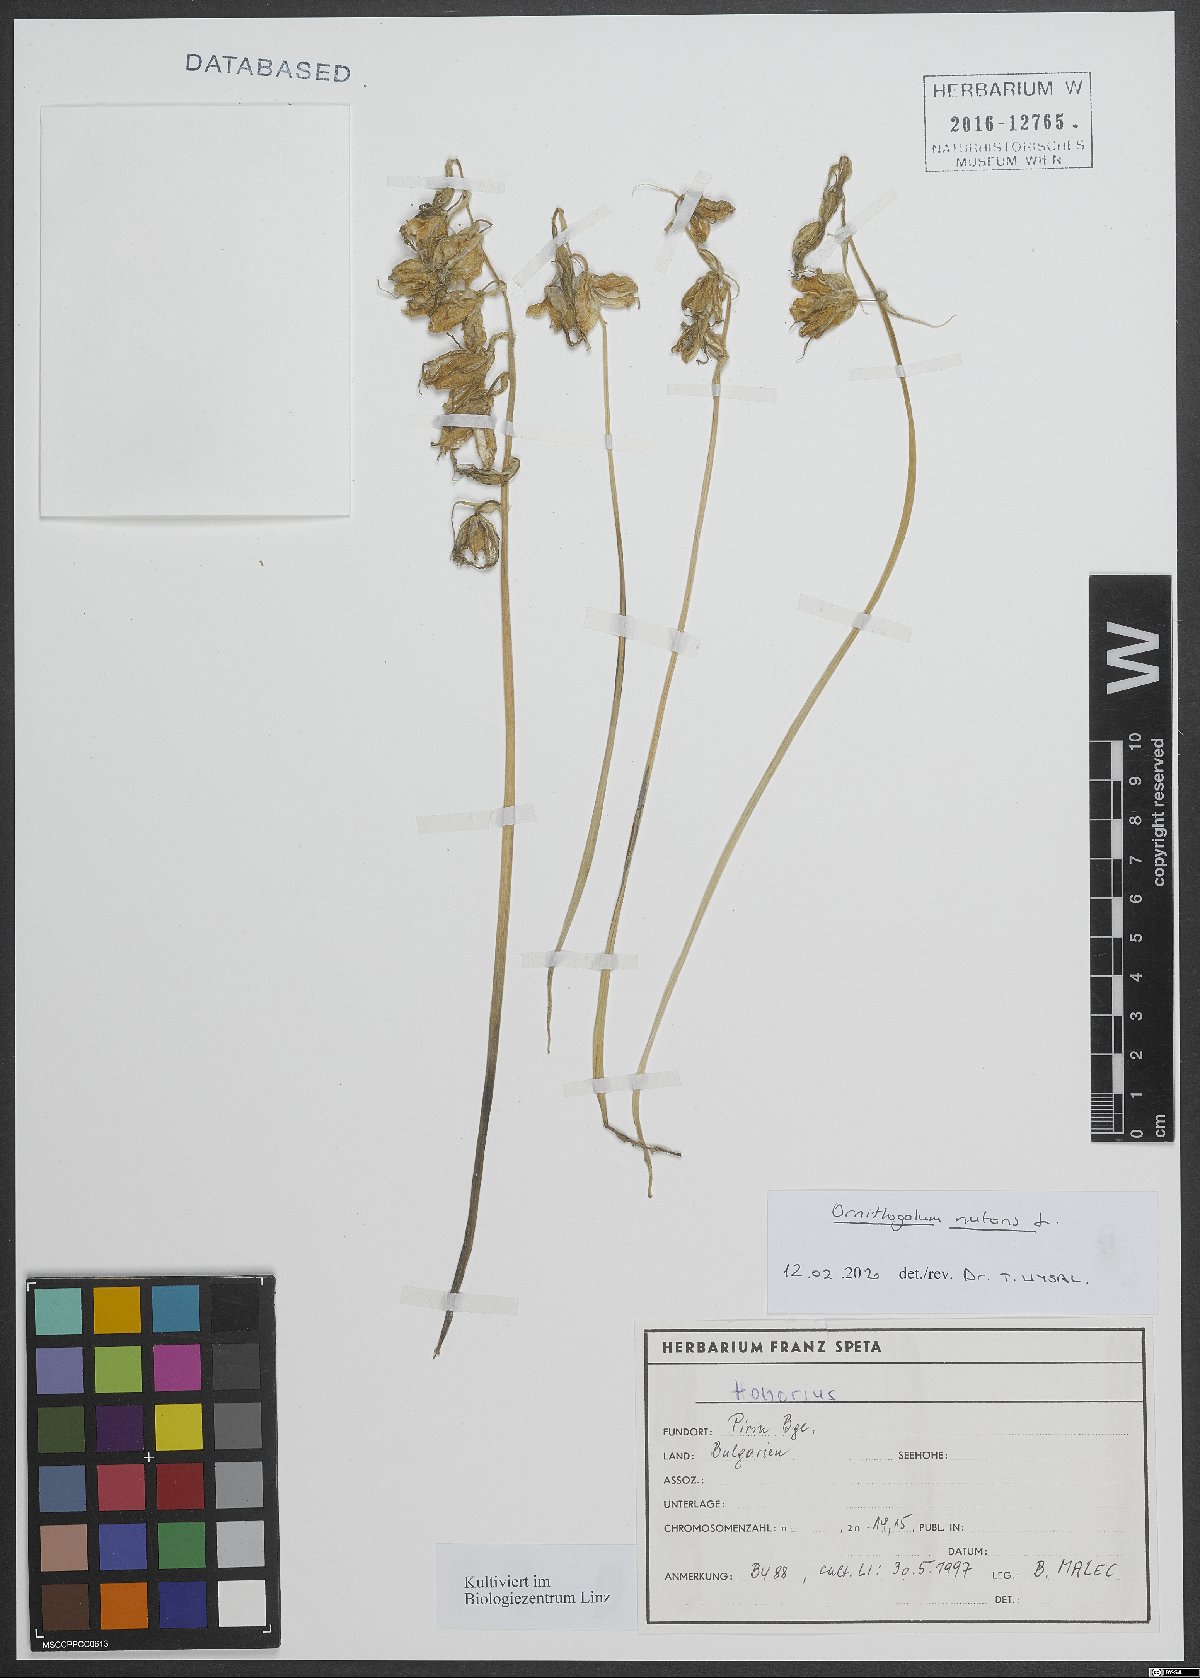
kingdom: Plantae
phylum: Tracheophyta
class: Liliopsida
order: Asparagales
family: Asparagaceae
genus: Ornithogalum
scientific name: Ornithogalum nutans
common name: Drooping star-of-bethlehem
